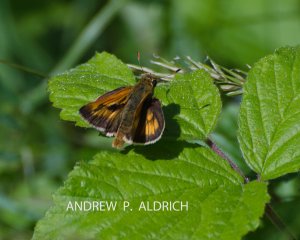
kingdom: Animalia
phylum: Arthropoda
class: Insecta
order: Lepidoptera
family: Hesperiidae
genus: Polites
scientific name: Polites
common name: Long Dash Skipper
